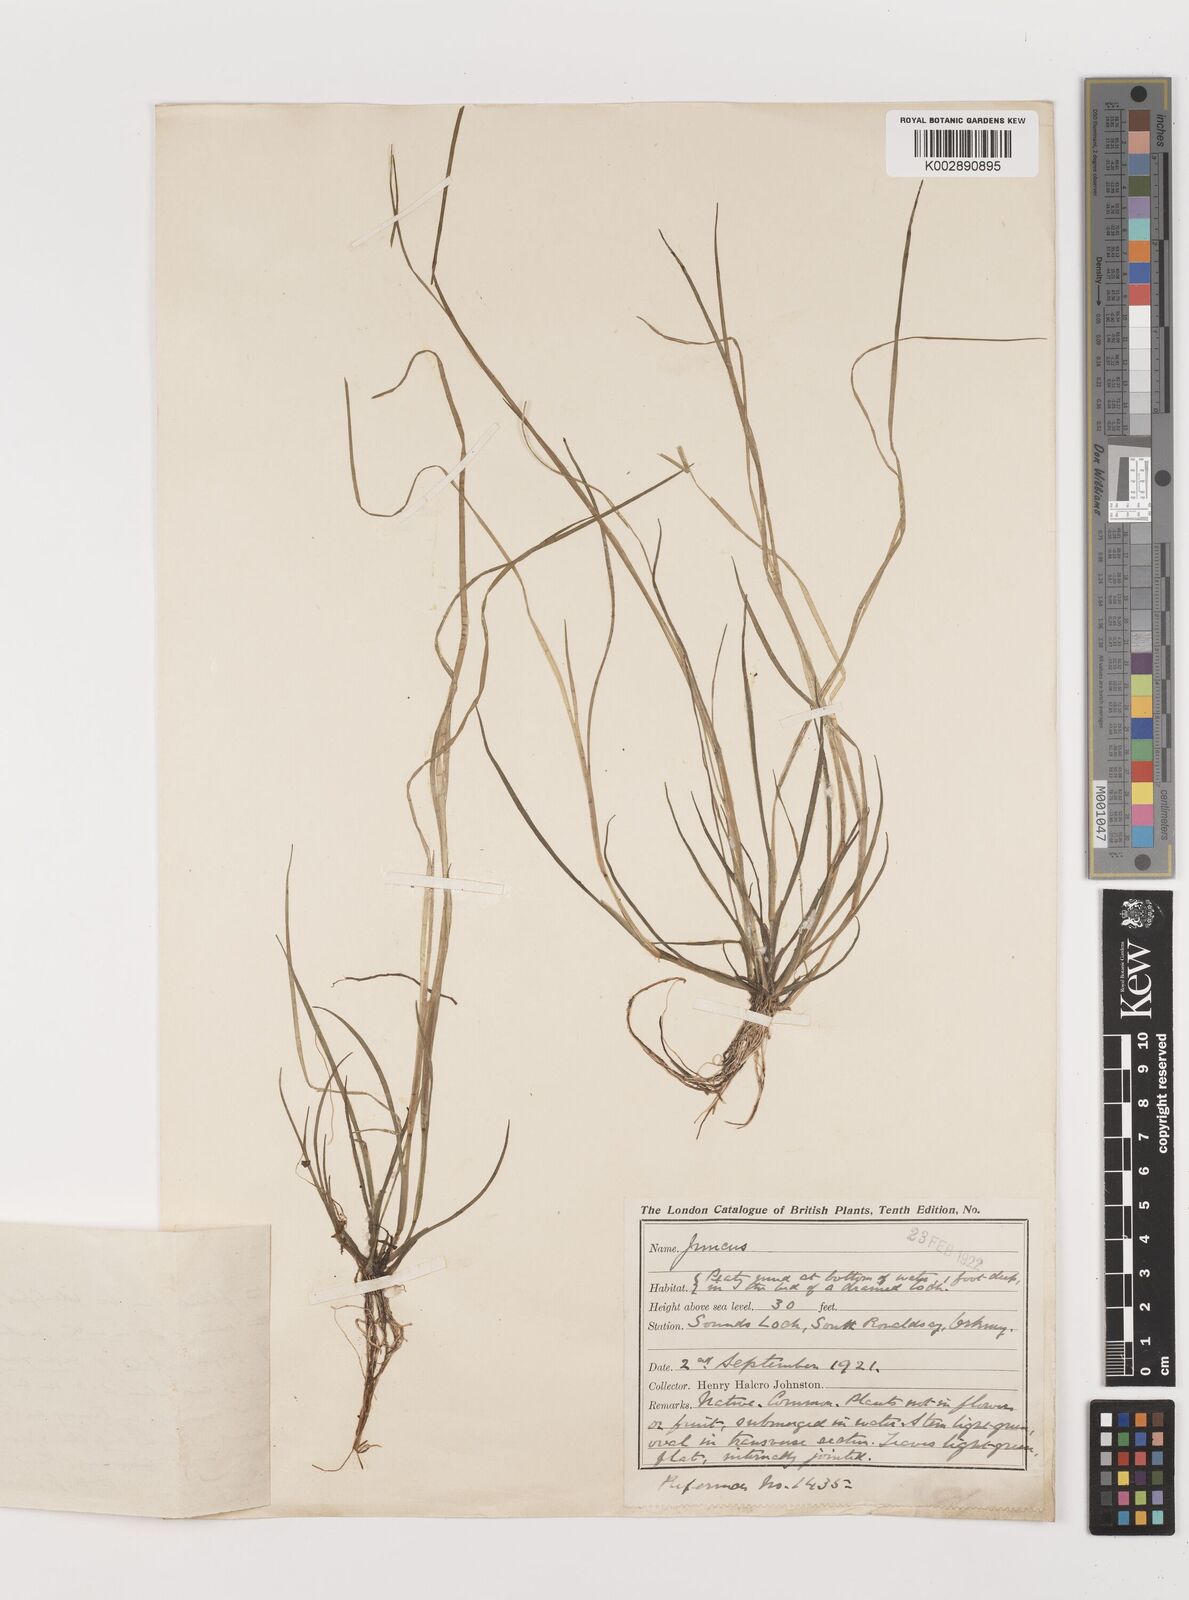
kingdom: Plantae
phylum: Tracheophyta
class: Liliopsida
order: Poales
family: Juncaceae
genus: Juncus
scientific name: Juncus
